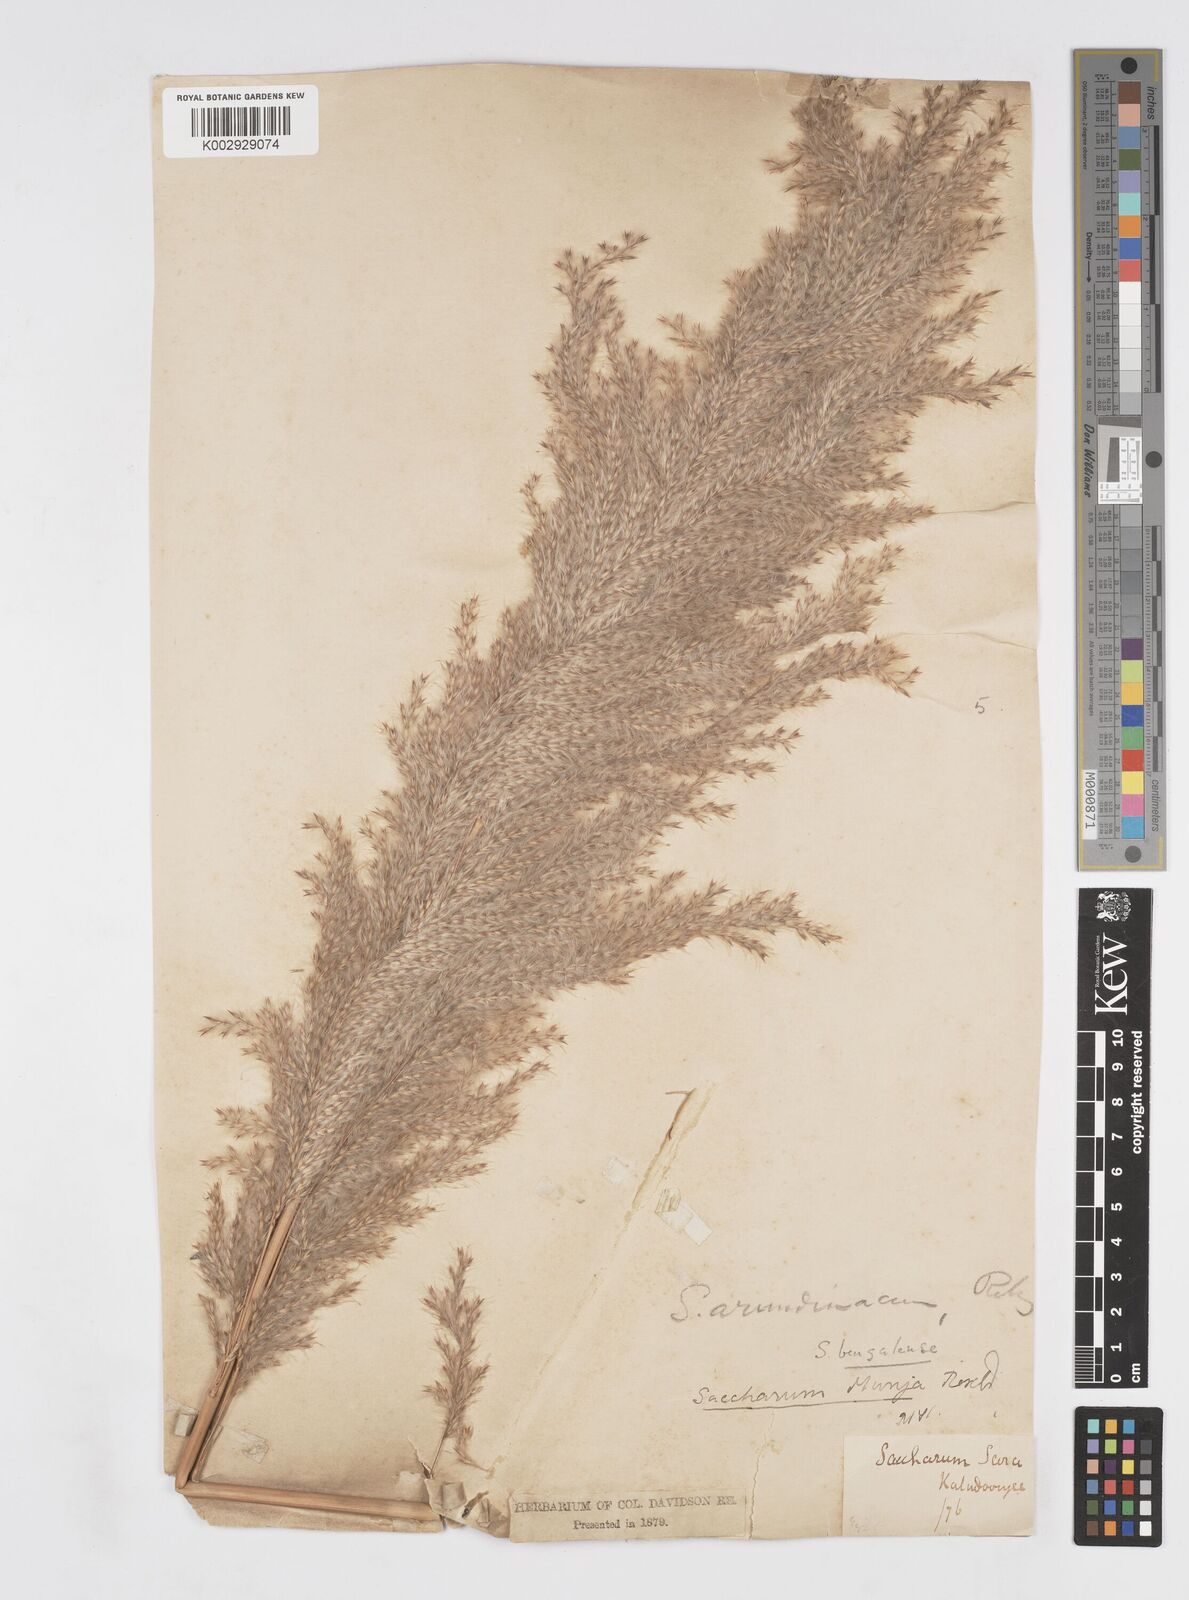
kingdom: Plantae
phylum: Tracheophyta
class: Liliopsida
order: Poales
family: Poaceae
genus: Tripidium
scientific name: Tripidium bengalense
